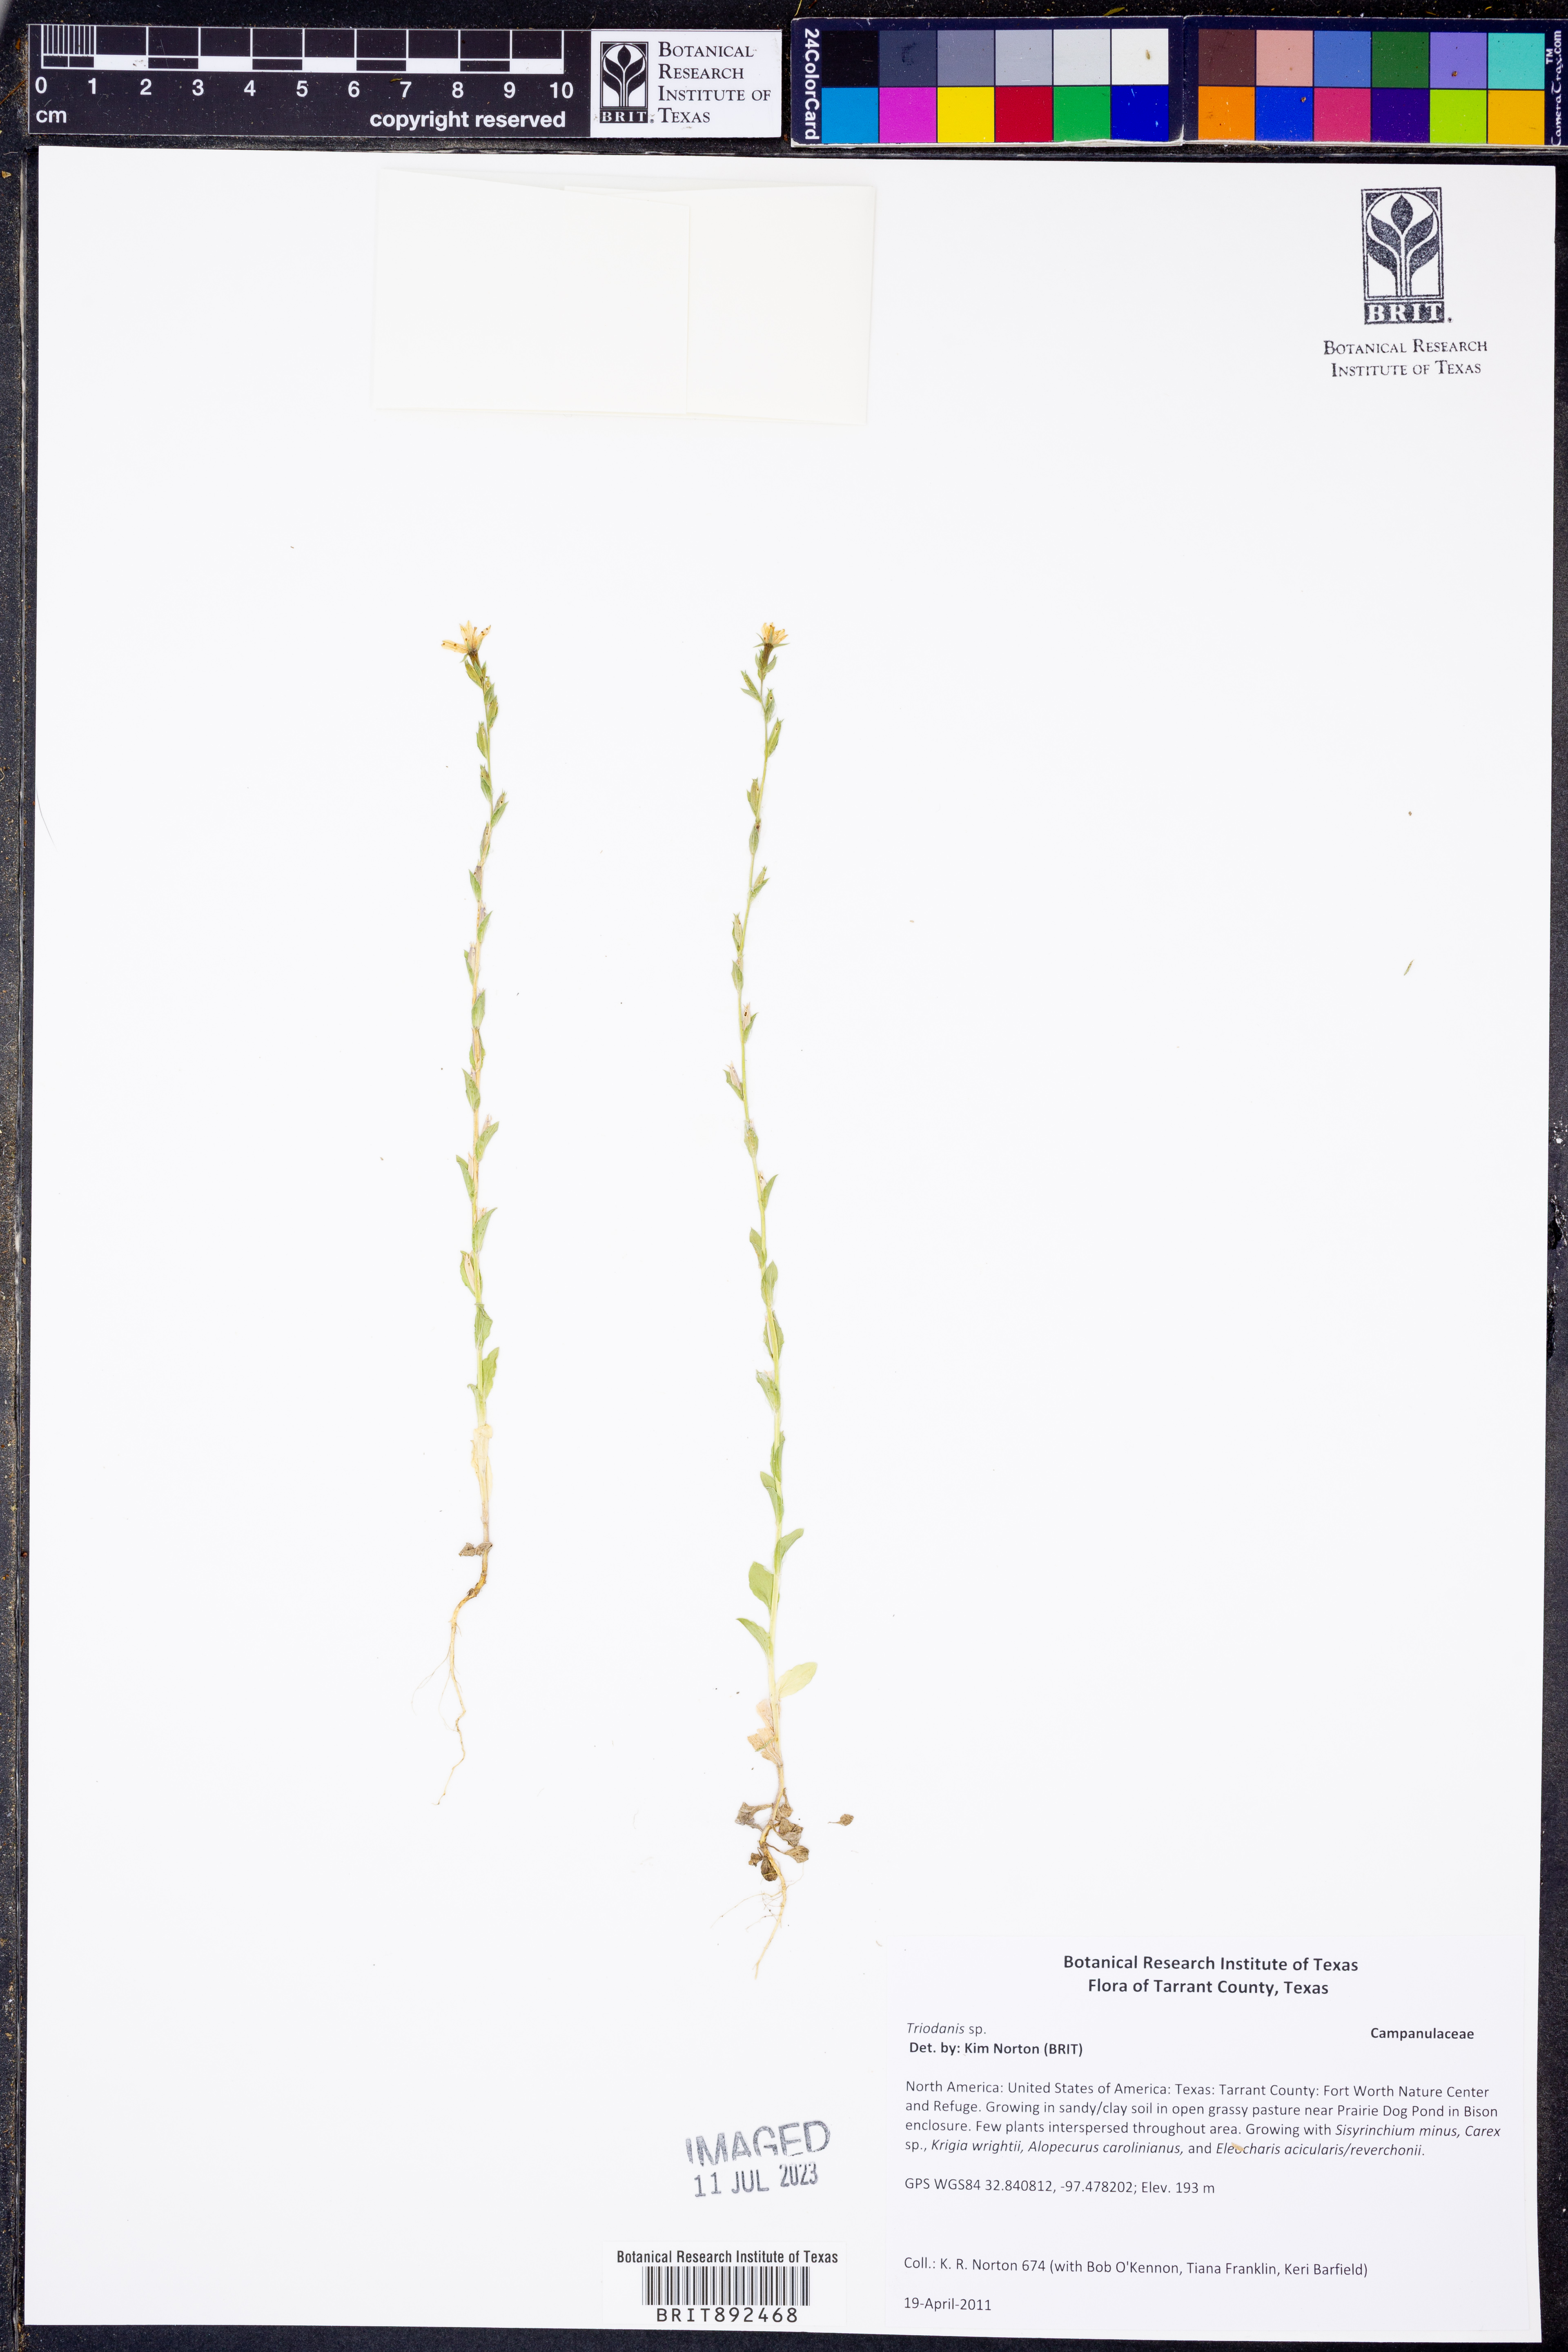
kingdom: Plantae
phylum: Tracheophyta
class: Magnoliopsida
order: Asterales
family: Campanulaceae
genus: Triodanis
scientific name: Triodanis
